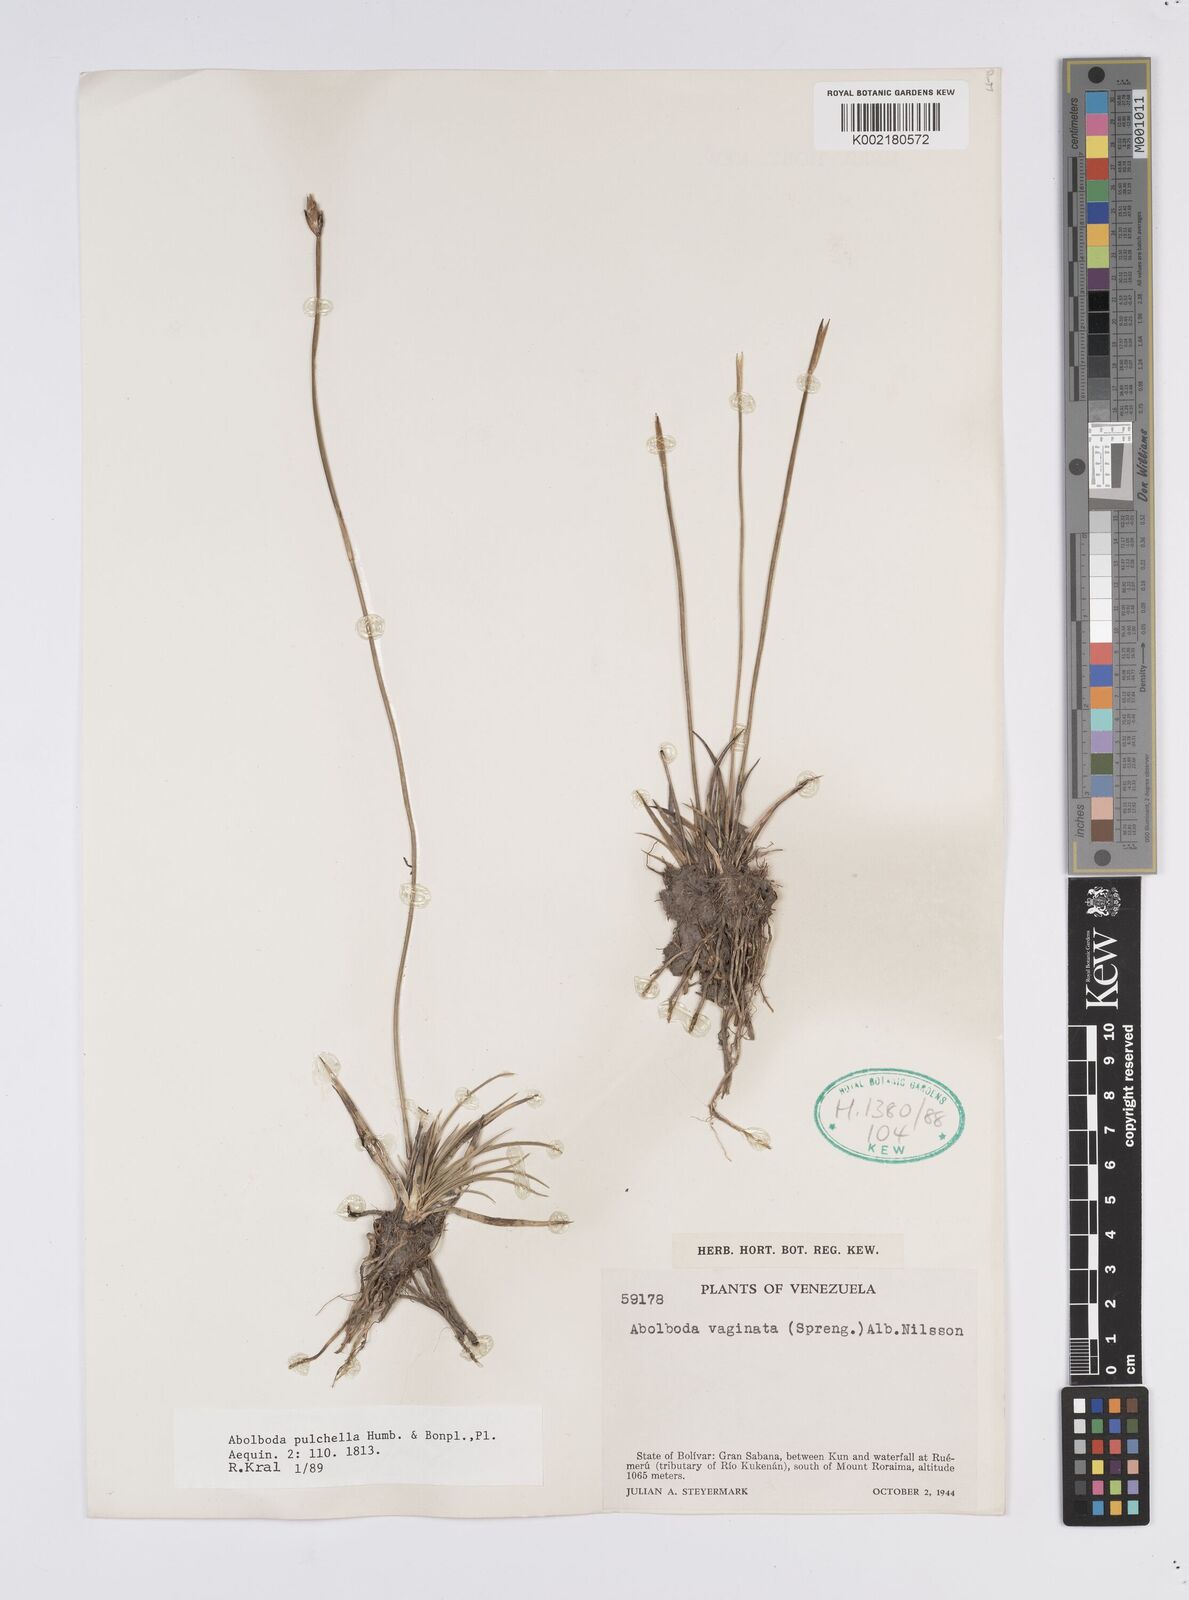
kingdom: Plantae
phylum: Tracheophyta
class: Liliopsida
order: Poales
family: Xyridaceae
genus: Abolboda
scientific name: Abolboda pulchella
